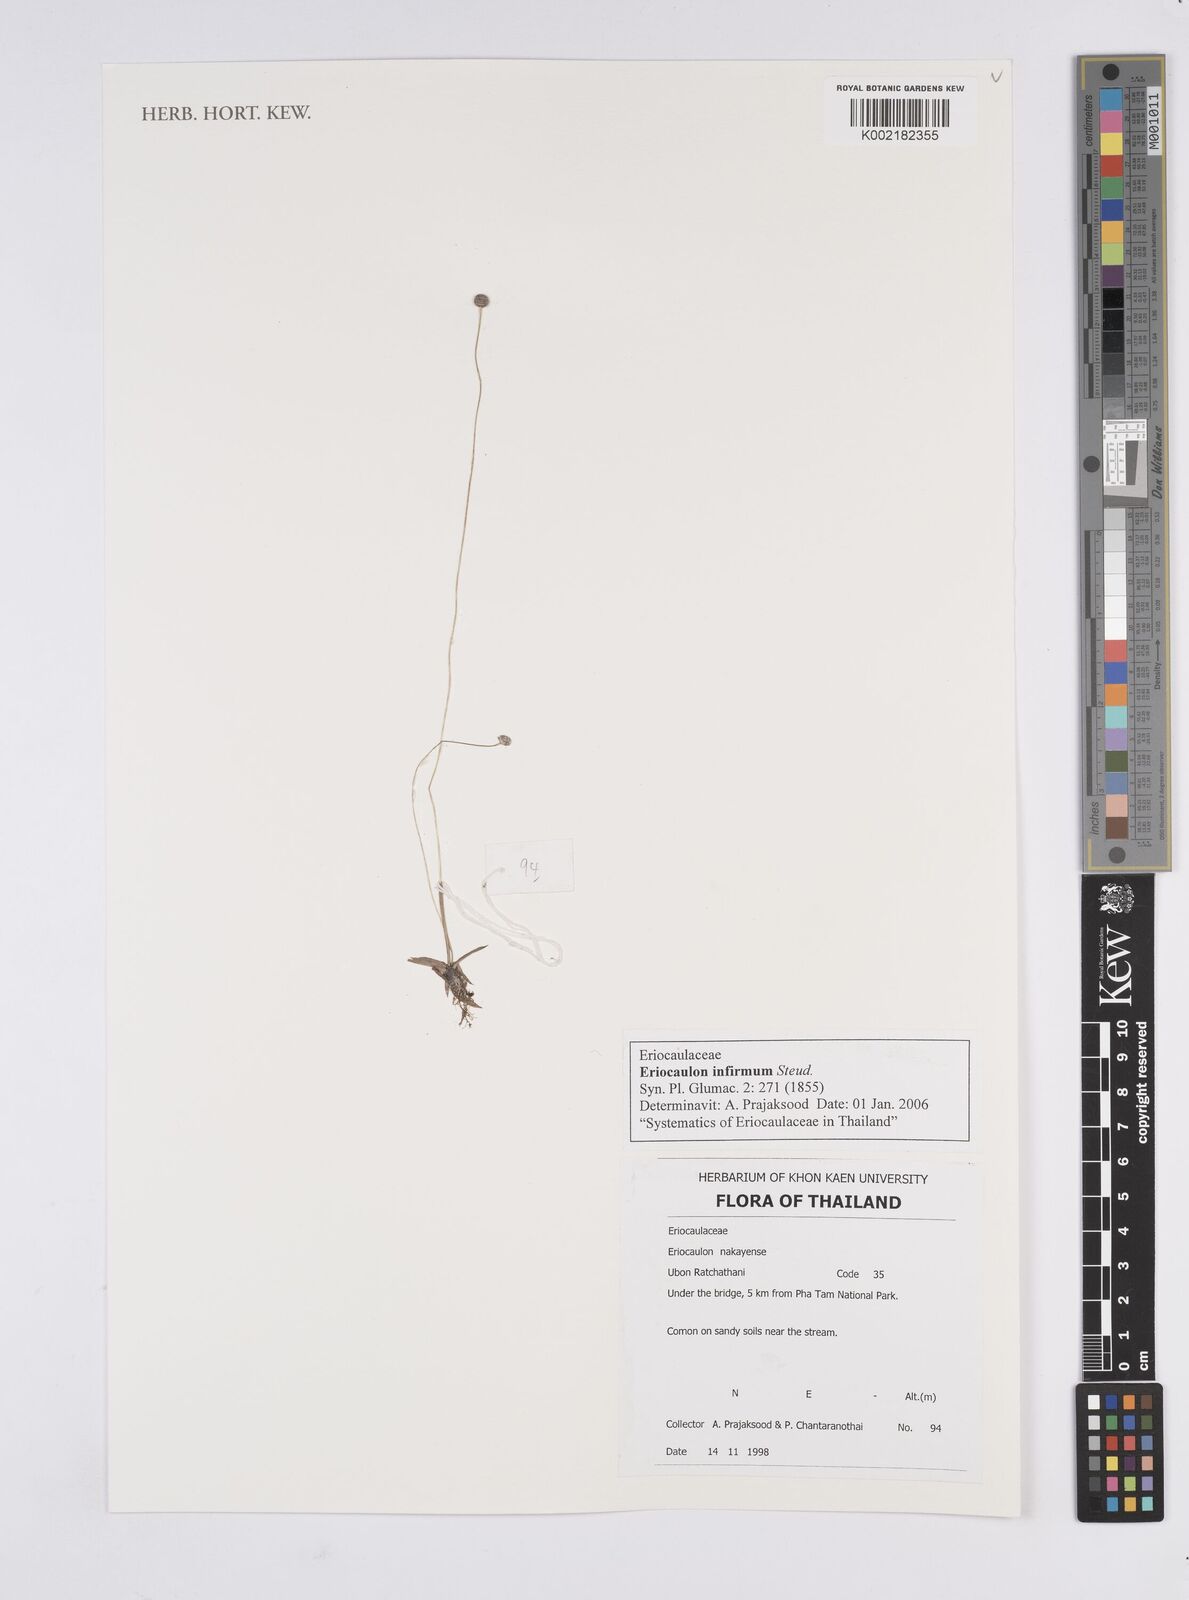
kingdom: Plantae
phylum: Tracheophyta
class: Liliopsida
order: Poales
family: Eriocaulaceae
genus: Eriocaulon
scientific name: Eriocaulon infirmum
